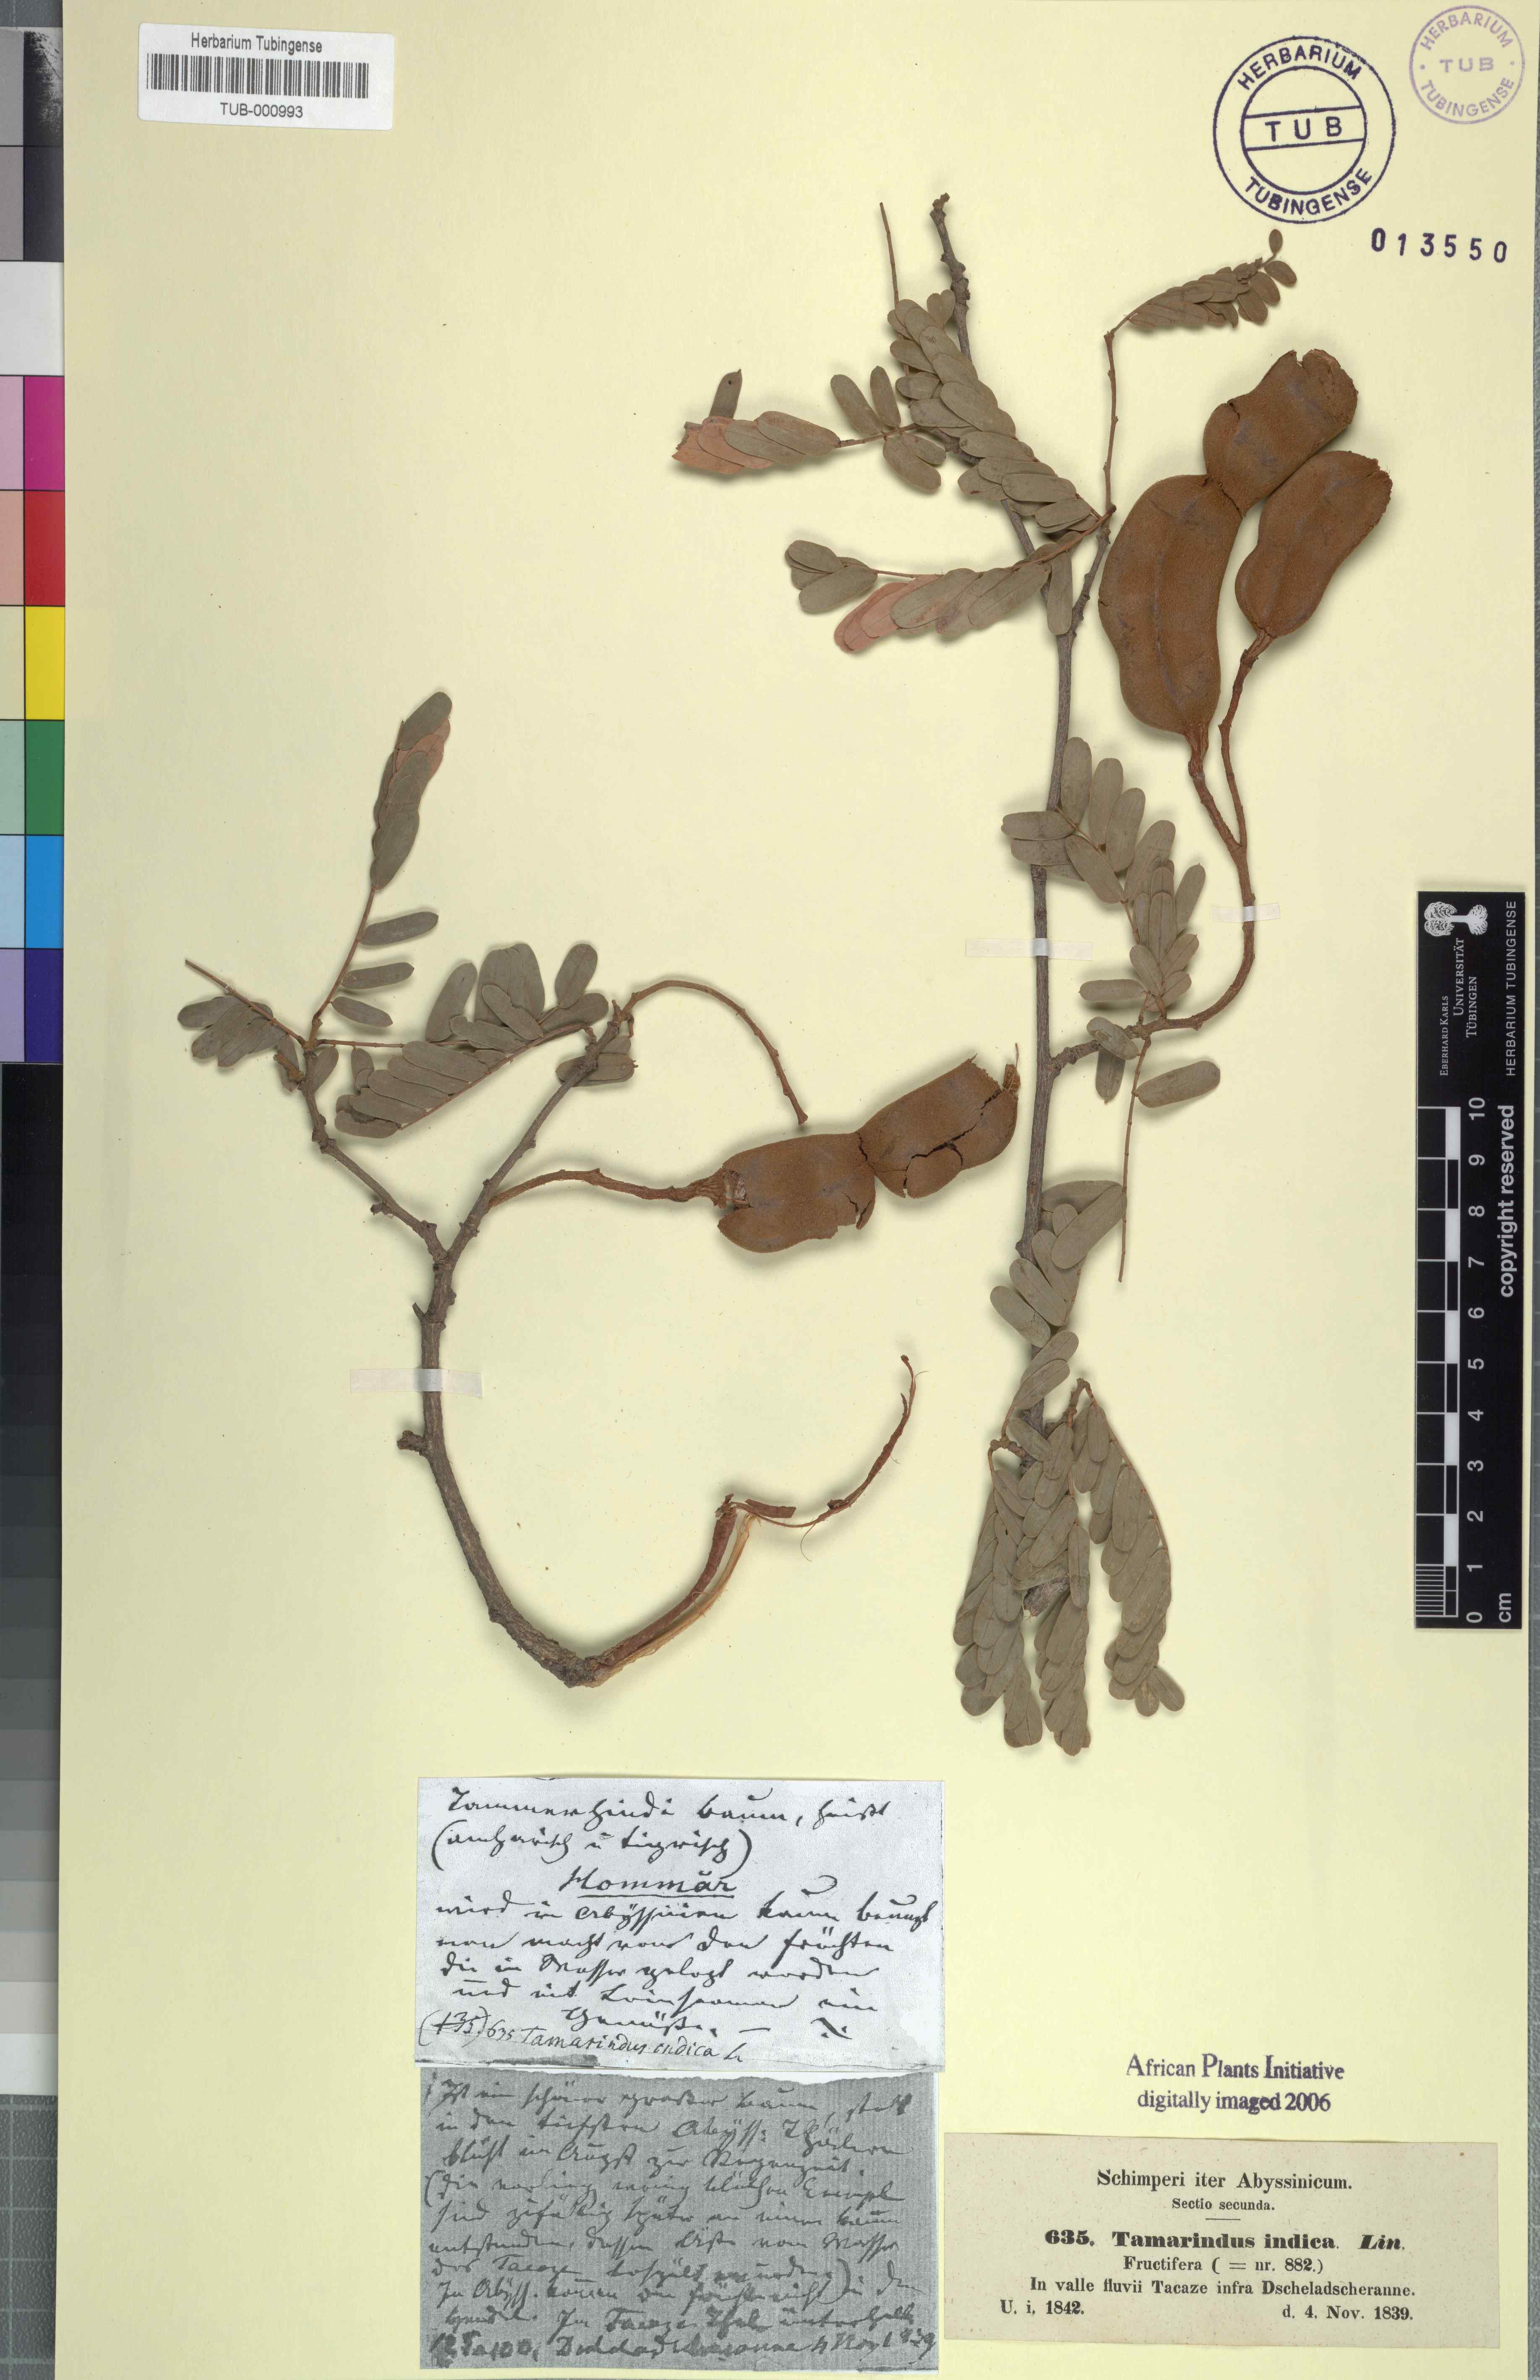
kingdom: Plantae
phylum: Tracheophyta
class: Magnoliopsida
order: Fabales
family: Fabaceae
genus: Tamarindus
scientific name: Tamarindus indica
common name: Tamarind
